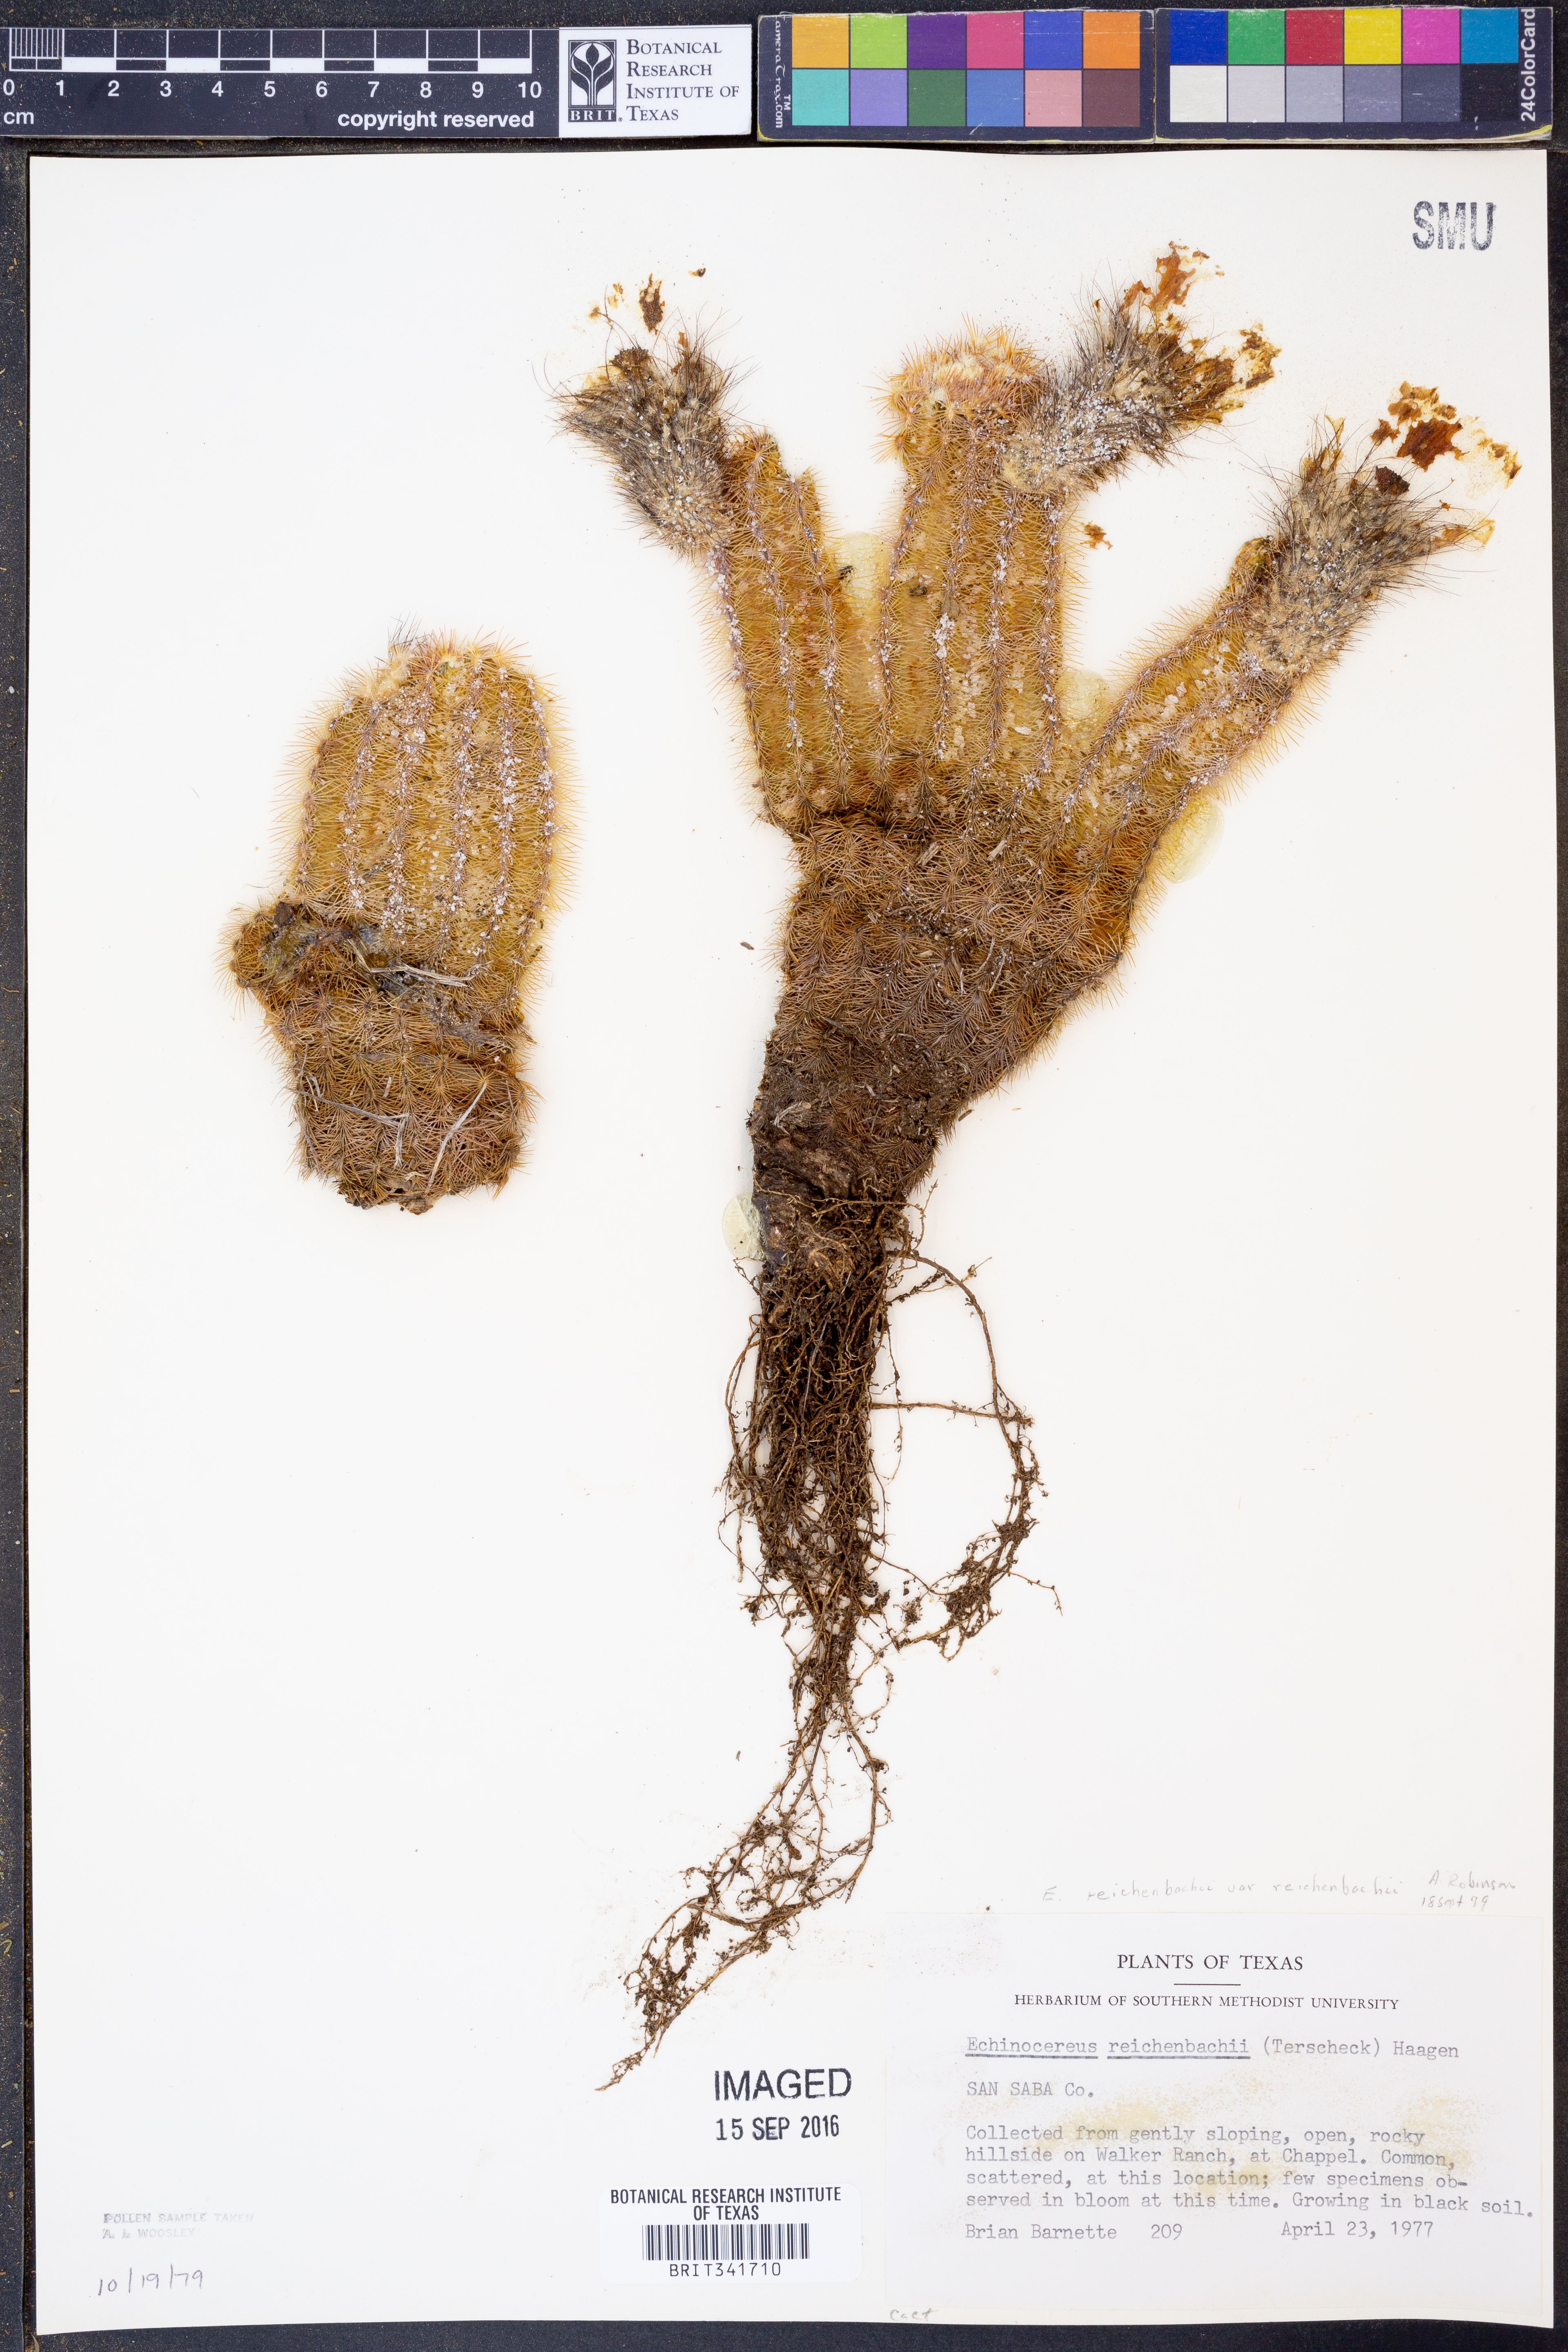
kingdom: Plantae
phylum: Tracheophyta
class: Magnoliopsida
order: Caryophyllales
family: Cactaceae
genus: Echinocereus
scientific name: Echinocereus reichenbachii
